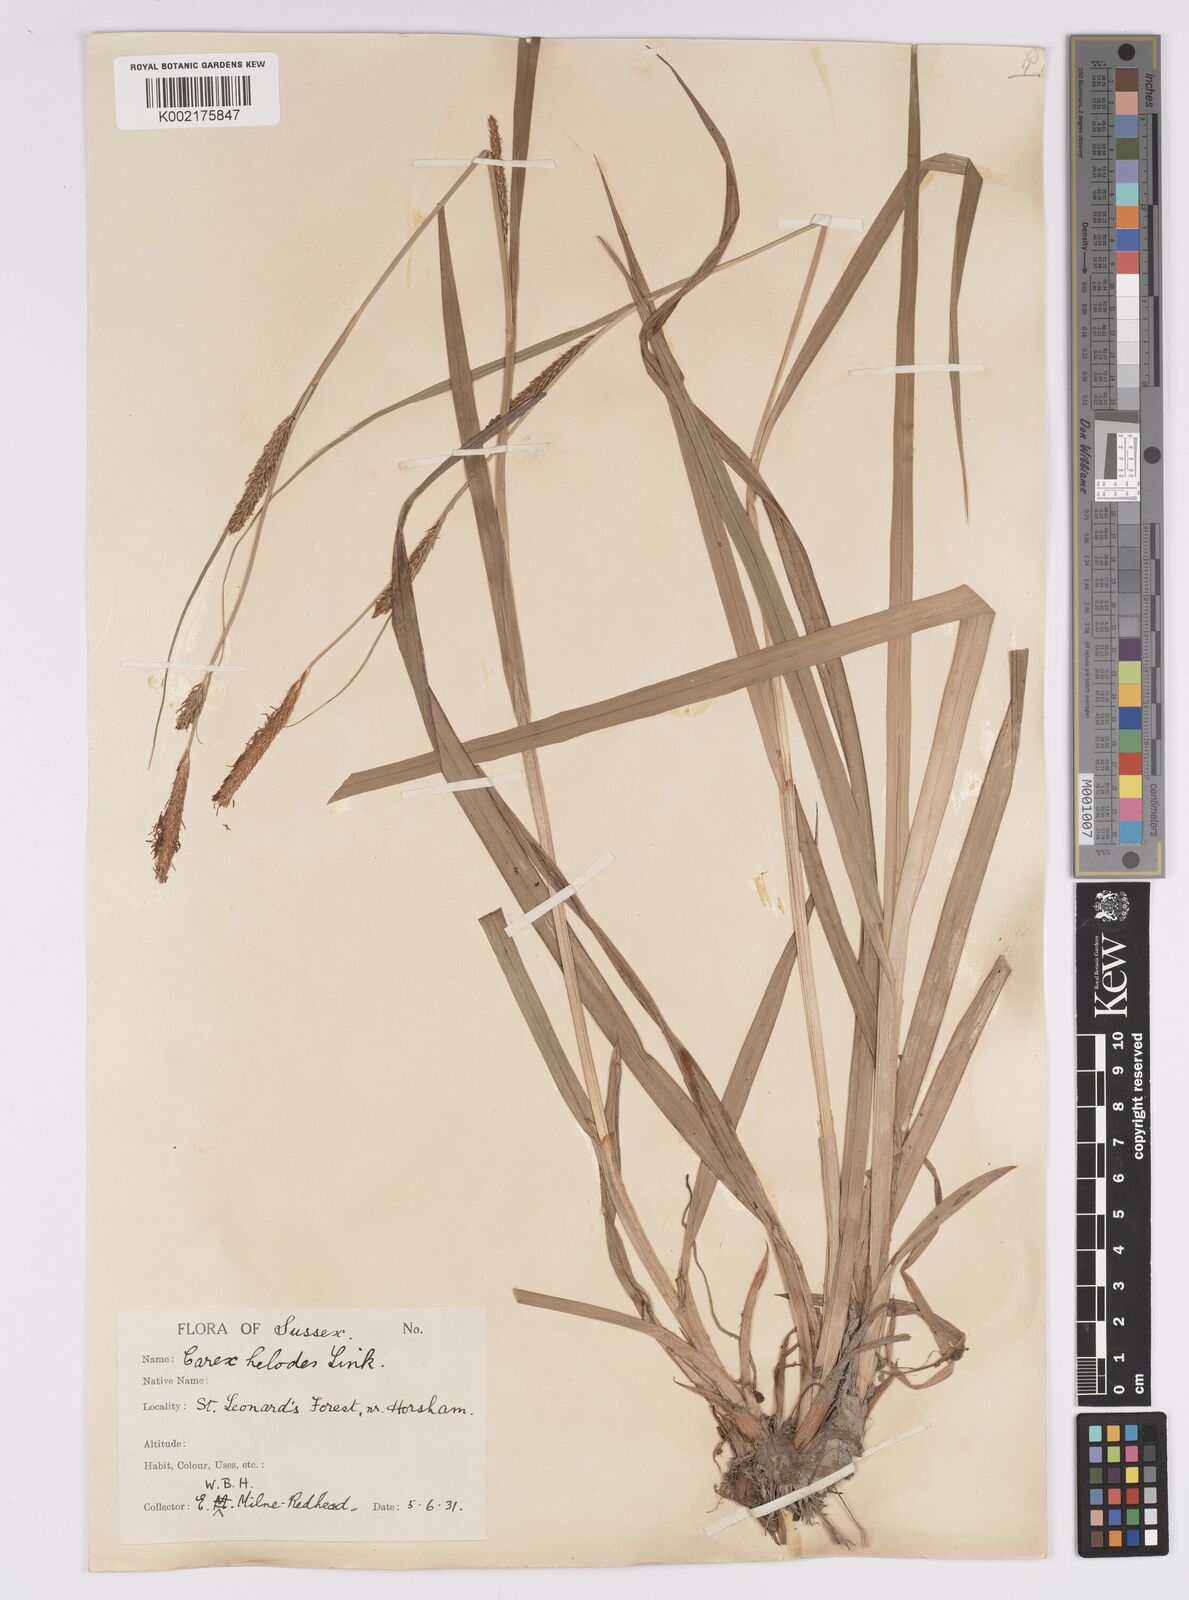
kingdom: Plantae
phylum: Tracheophyta
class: Liliopsida
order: Poales
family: Cyperaceae
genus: Carex
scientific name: Carex laevigata
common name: Smooth-stalked sedge
